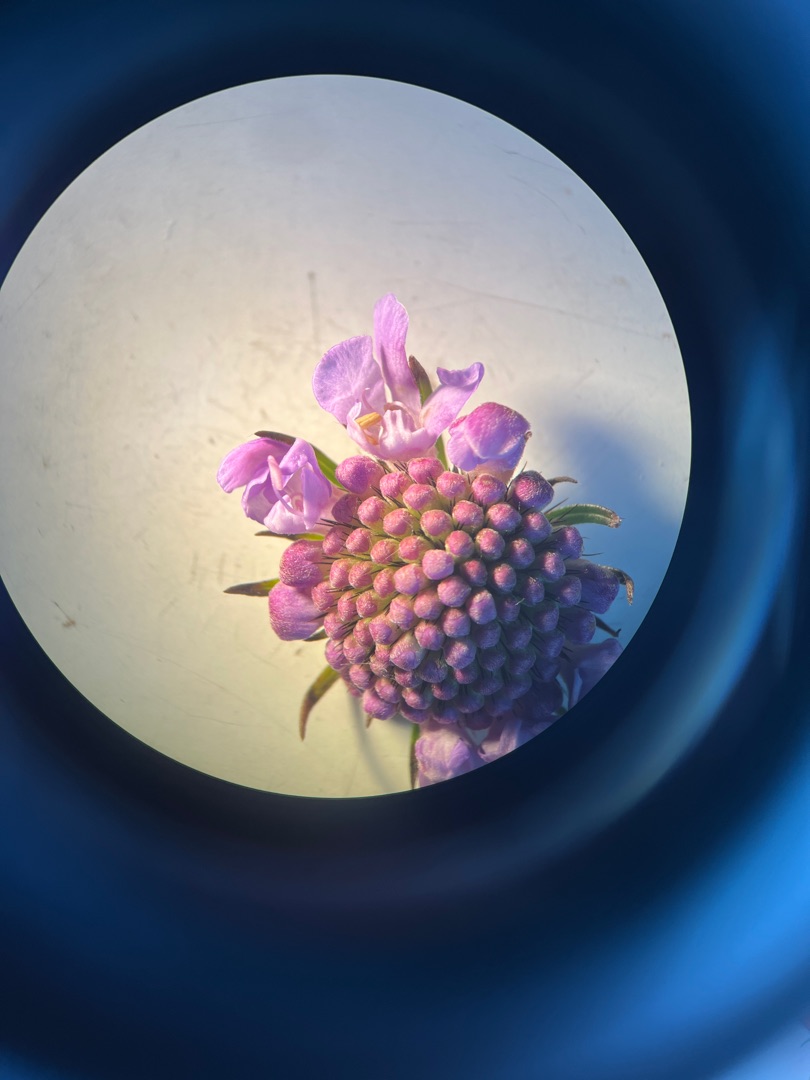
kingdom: Plantae
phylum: Tracheophyta
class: Magnoliopsida
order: Dipsacales
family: Caprifoliaceae
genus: Scabiosa
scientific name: Scabiosa columbaria
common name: Due-skabiose
